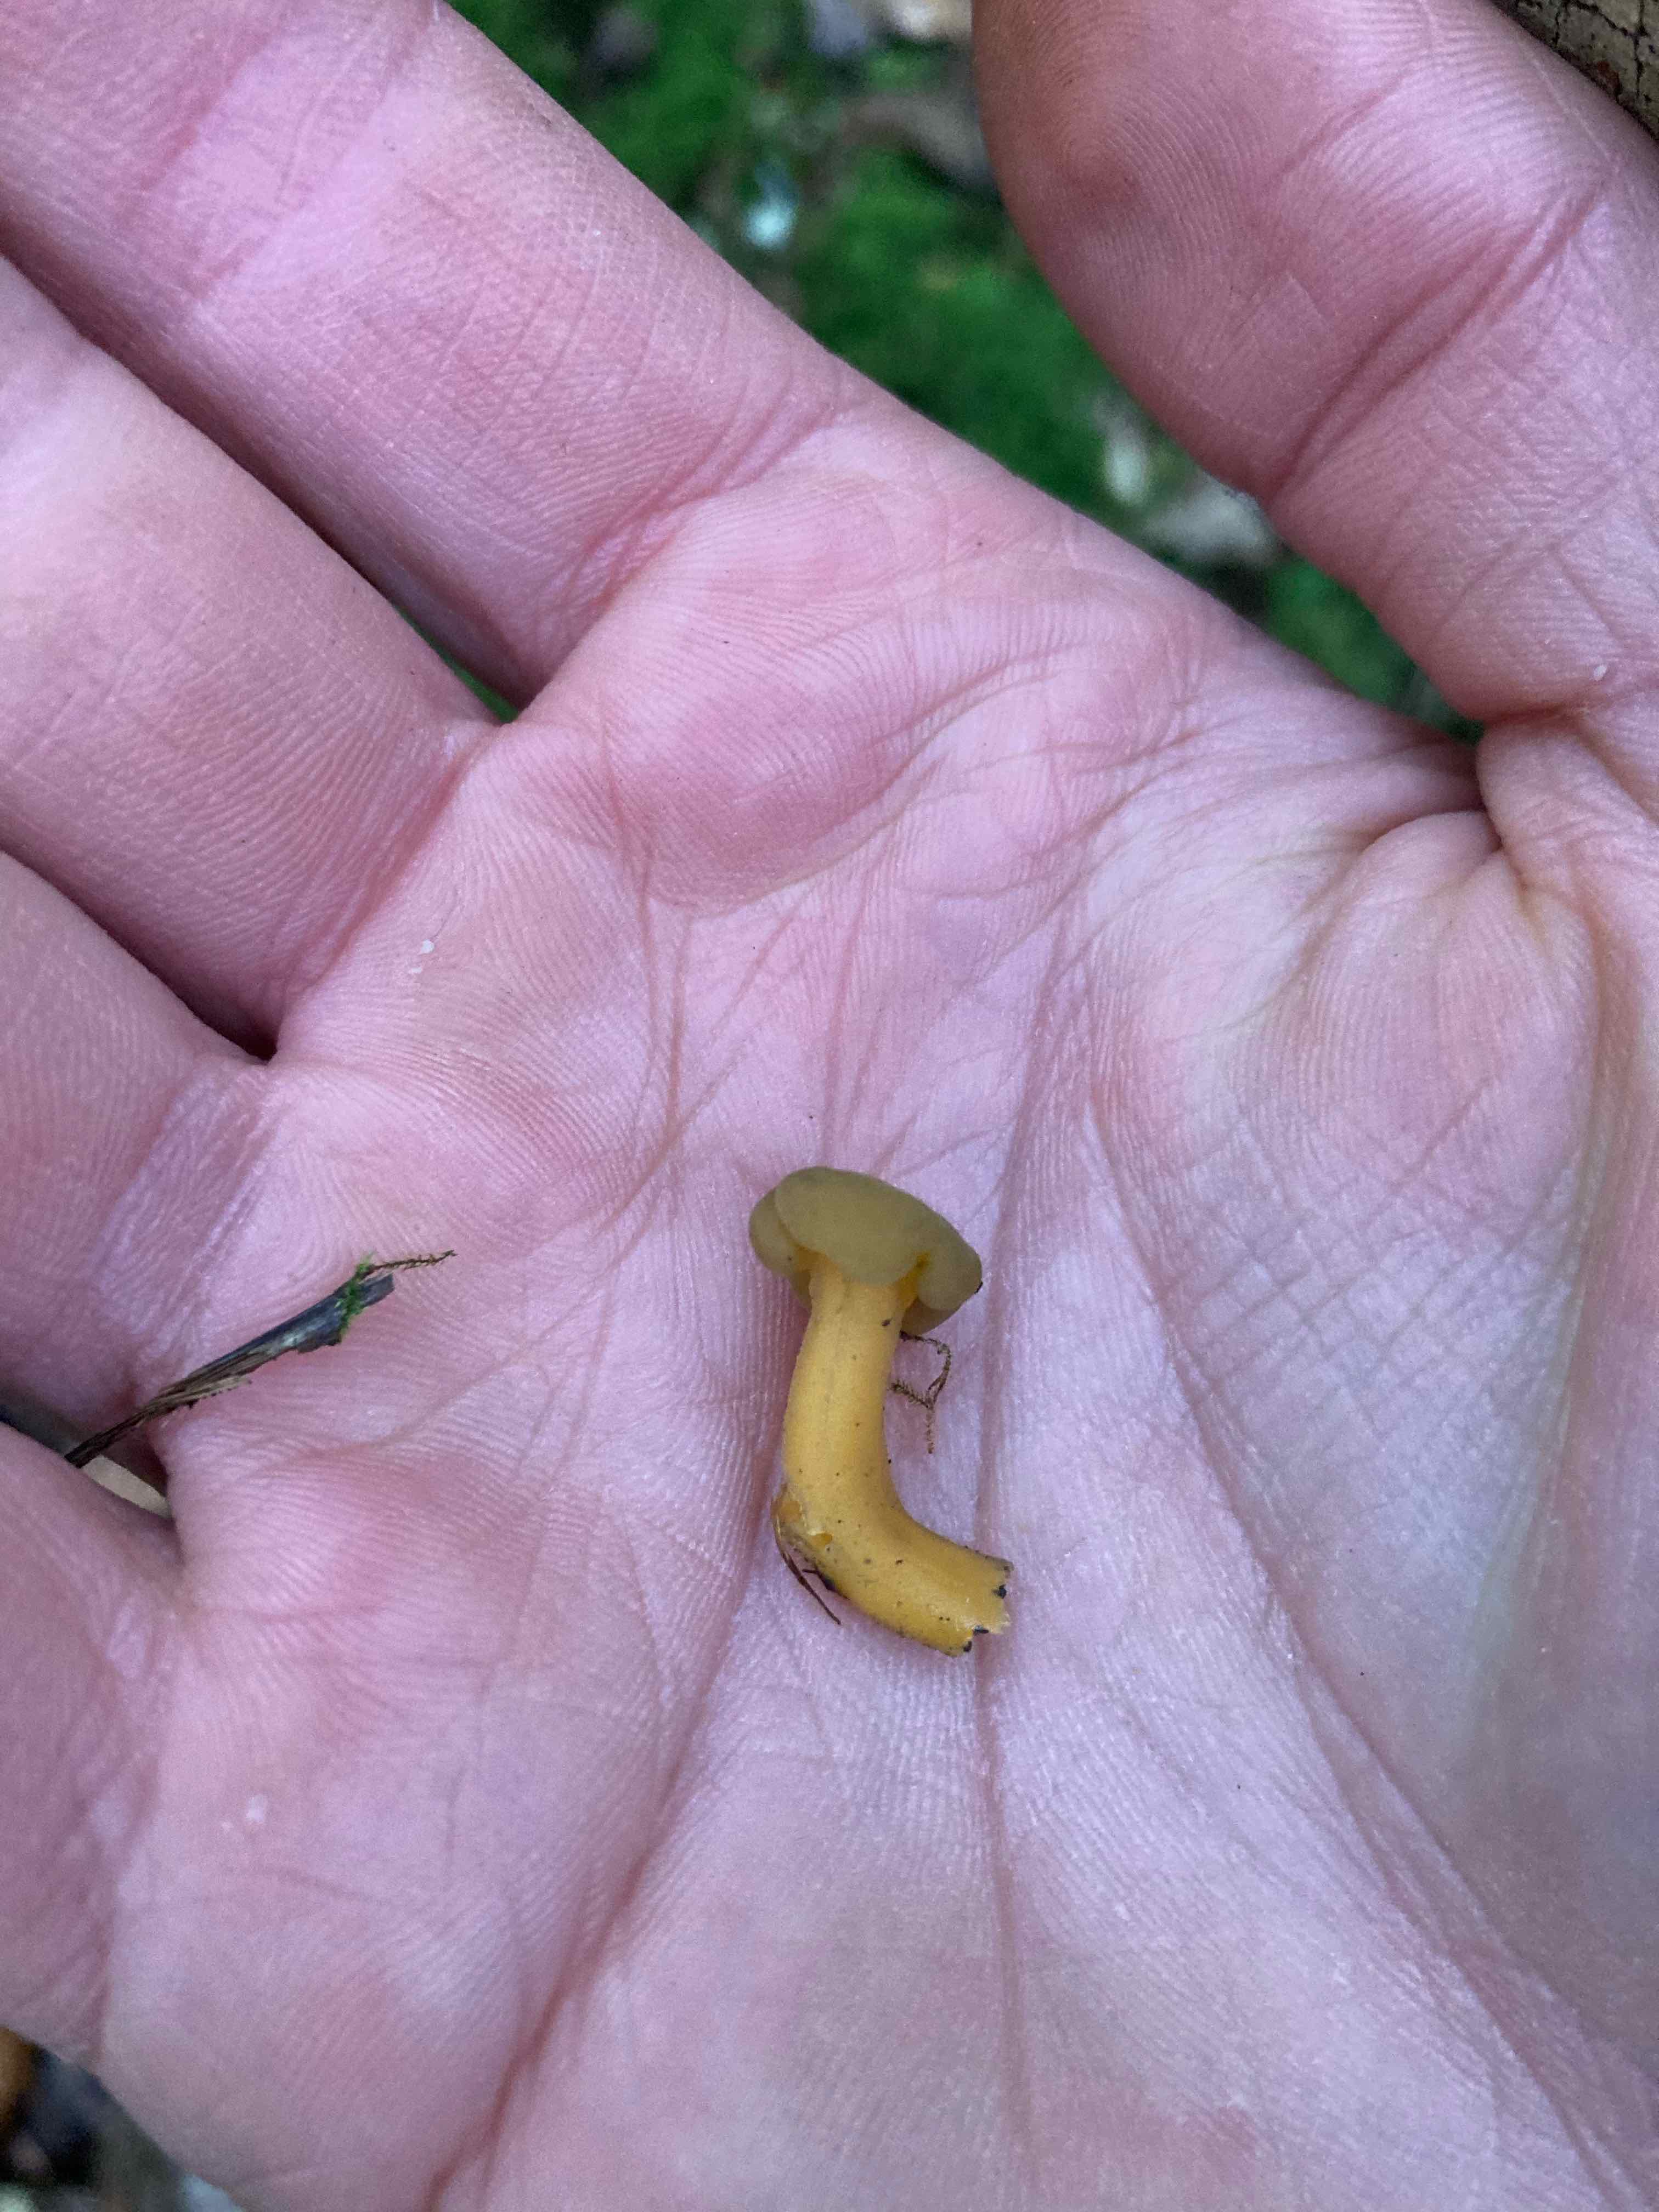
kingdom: Fungi
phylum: Ascomycota
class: Leotiomycetes
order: Leotiales
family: Leotiaceae
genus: Leotia
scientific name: Leotia lubrica
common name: ravsvamp
